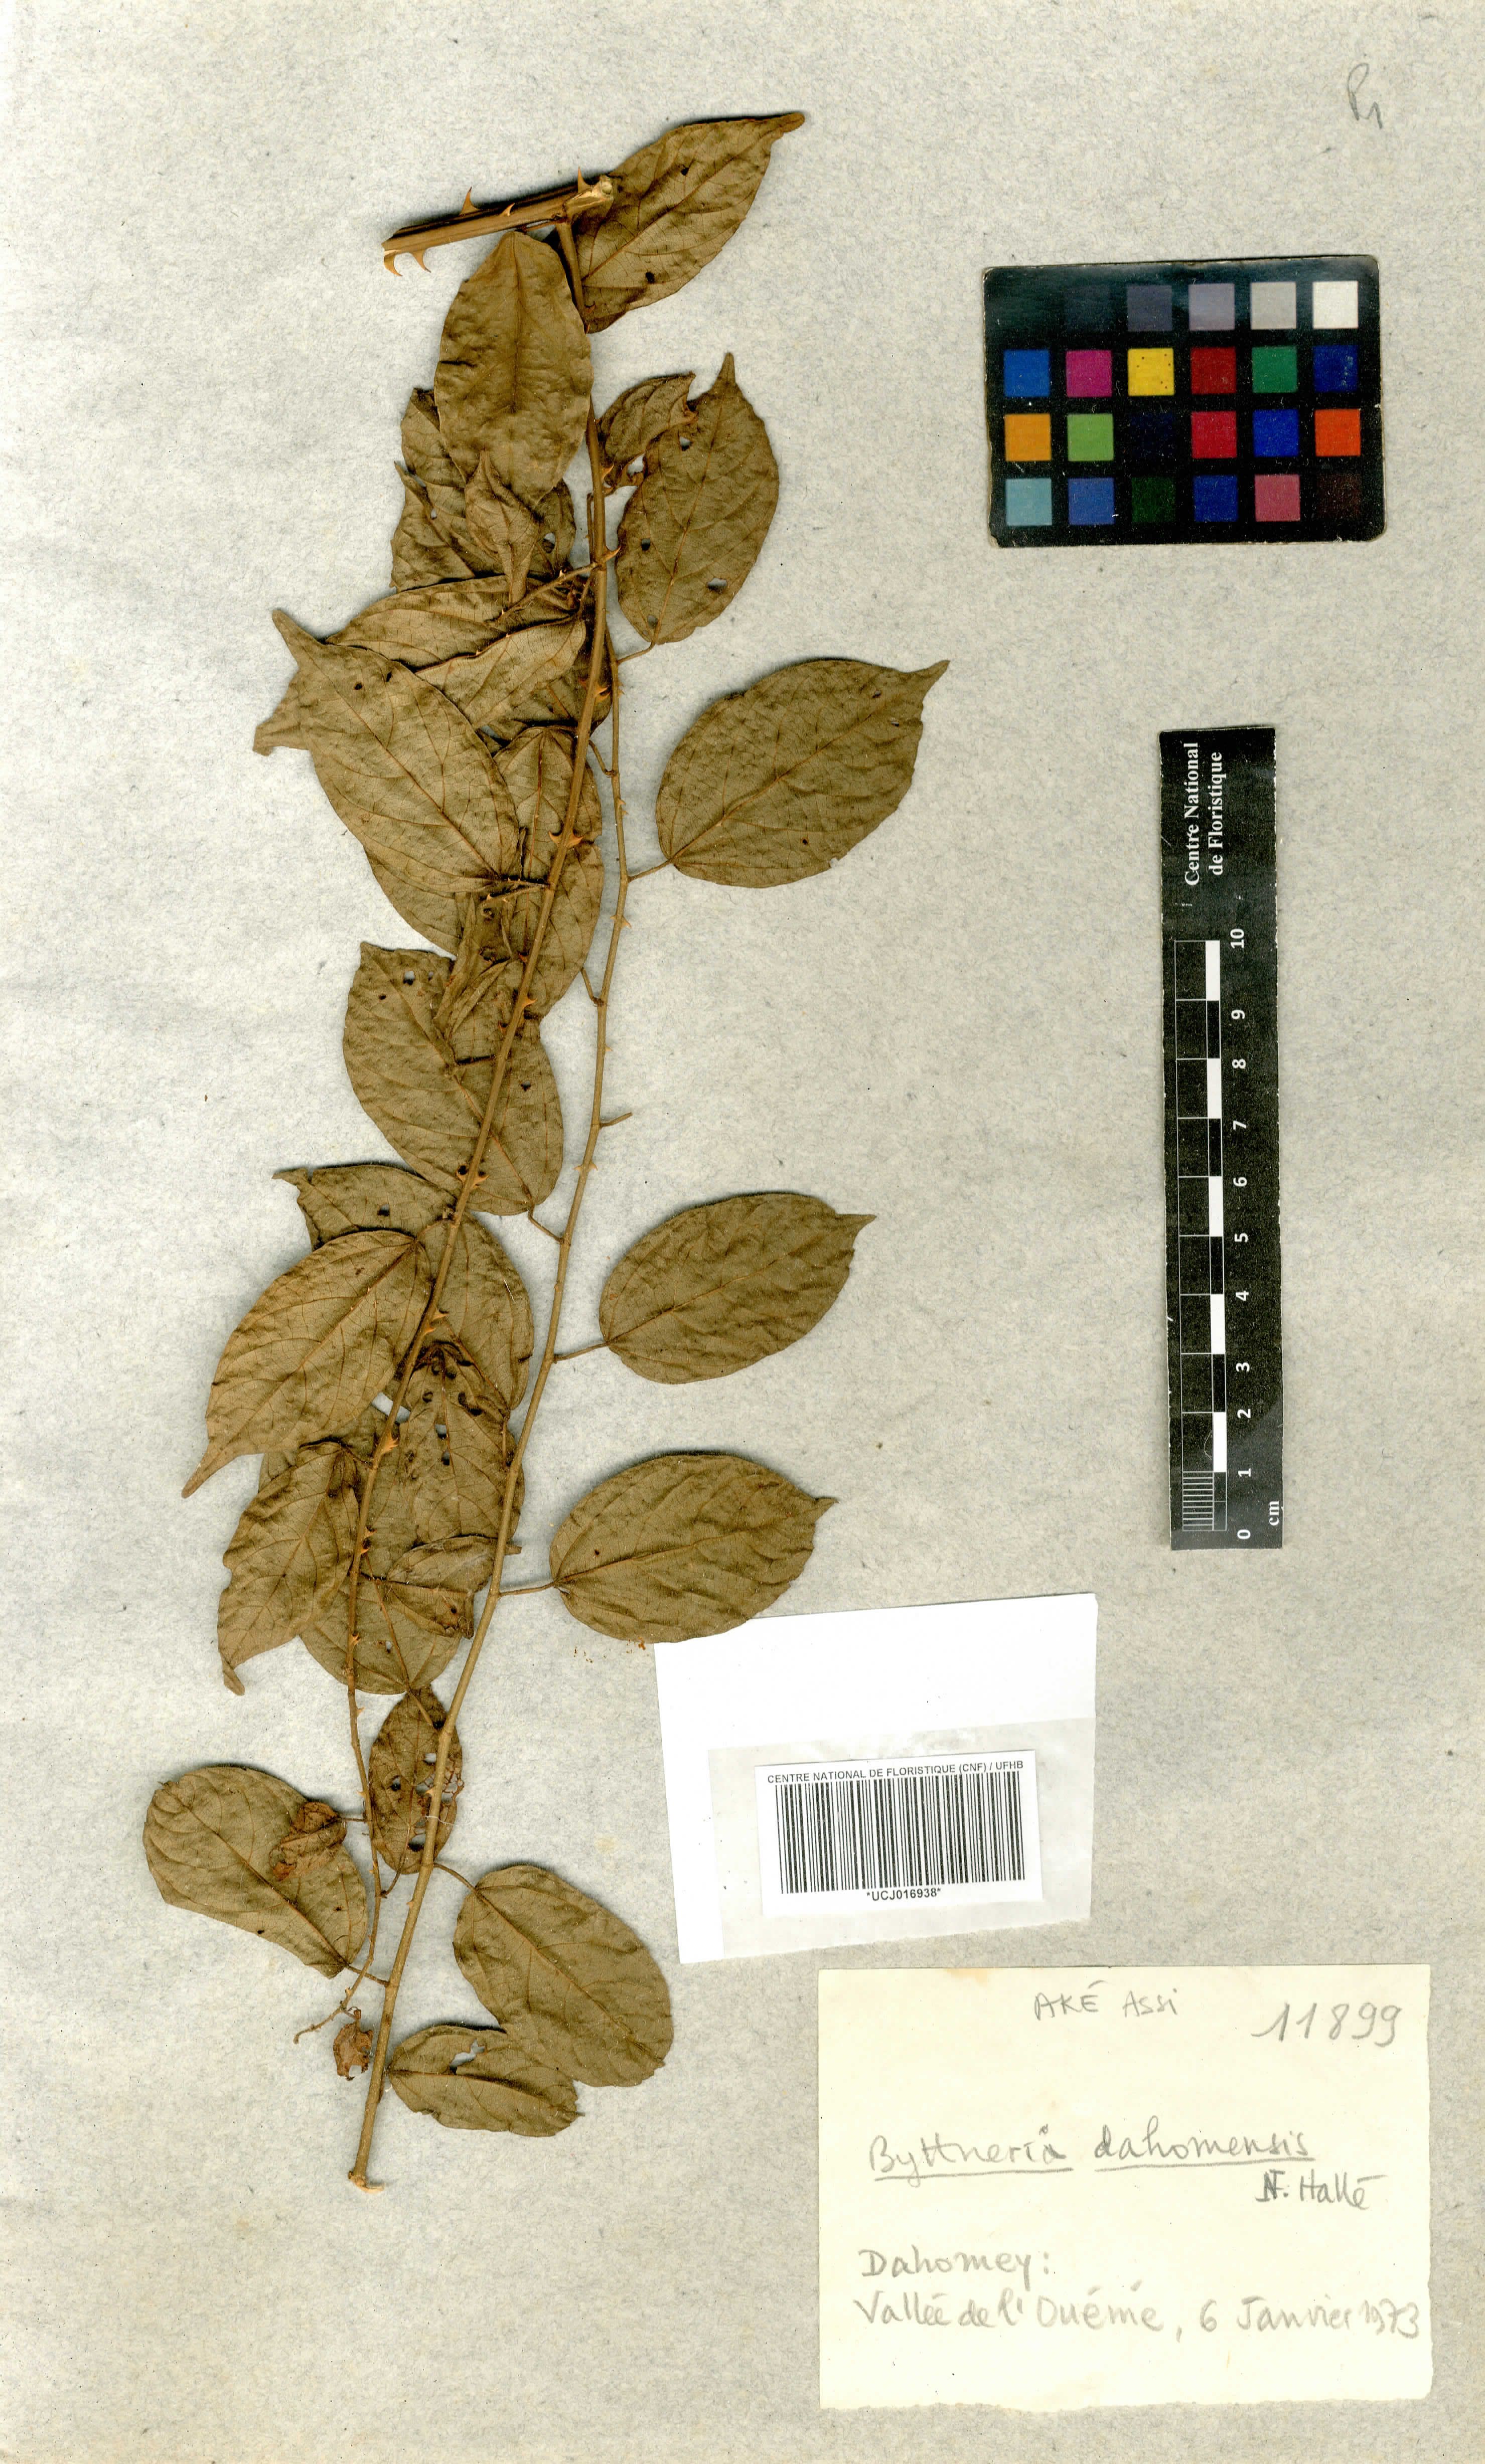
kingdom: Plantae
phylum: Tracheophyta
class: Magnoliopsida
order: Malvales
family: Malvaceae
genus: Byttneria
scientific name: Byttneria dahomensis
